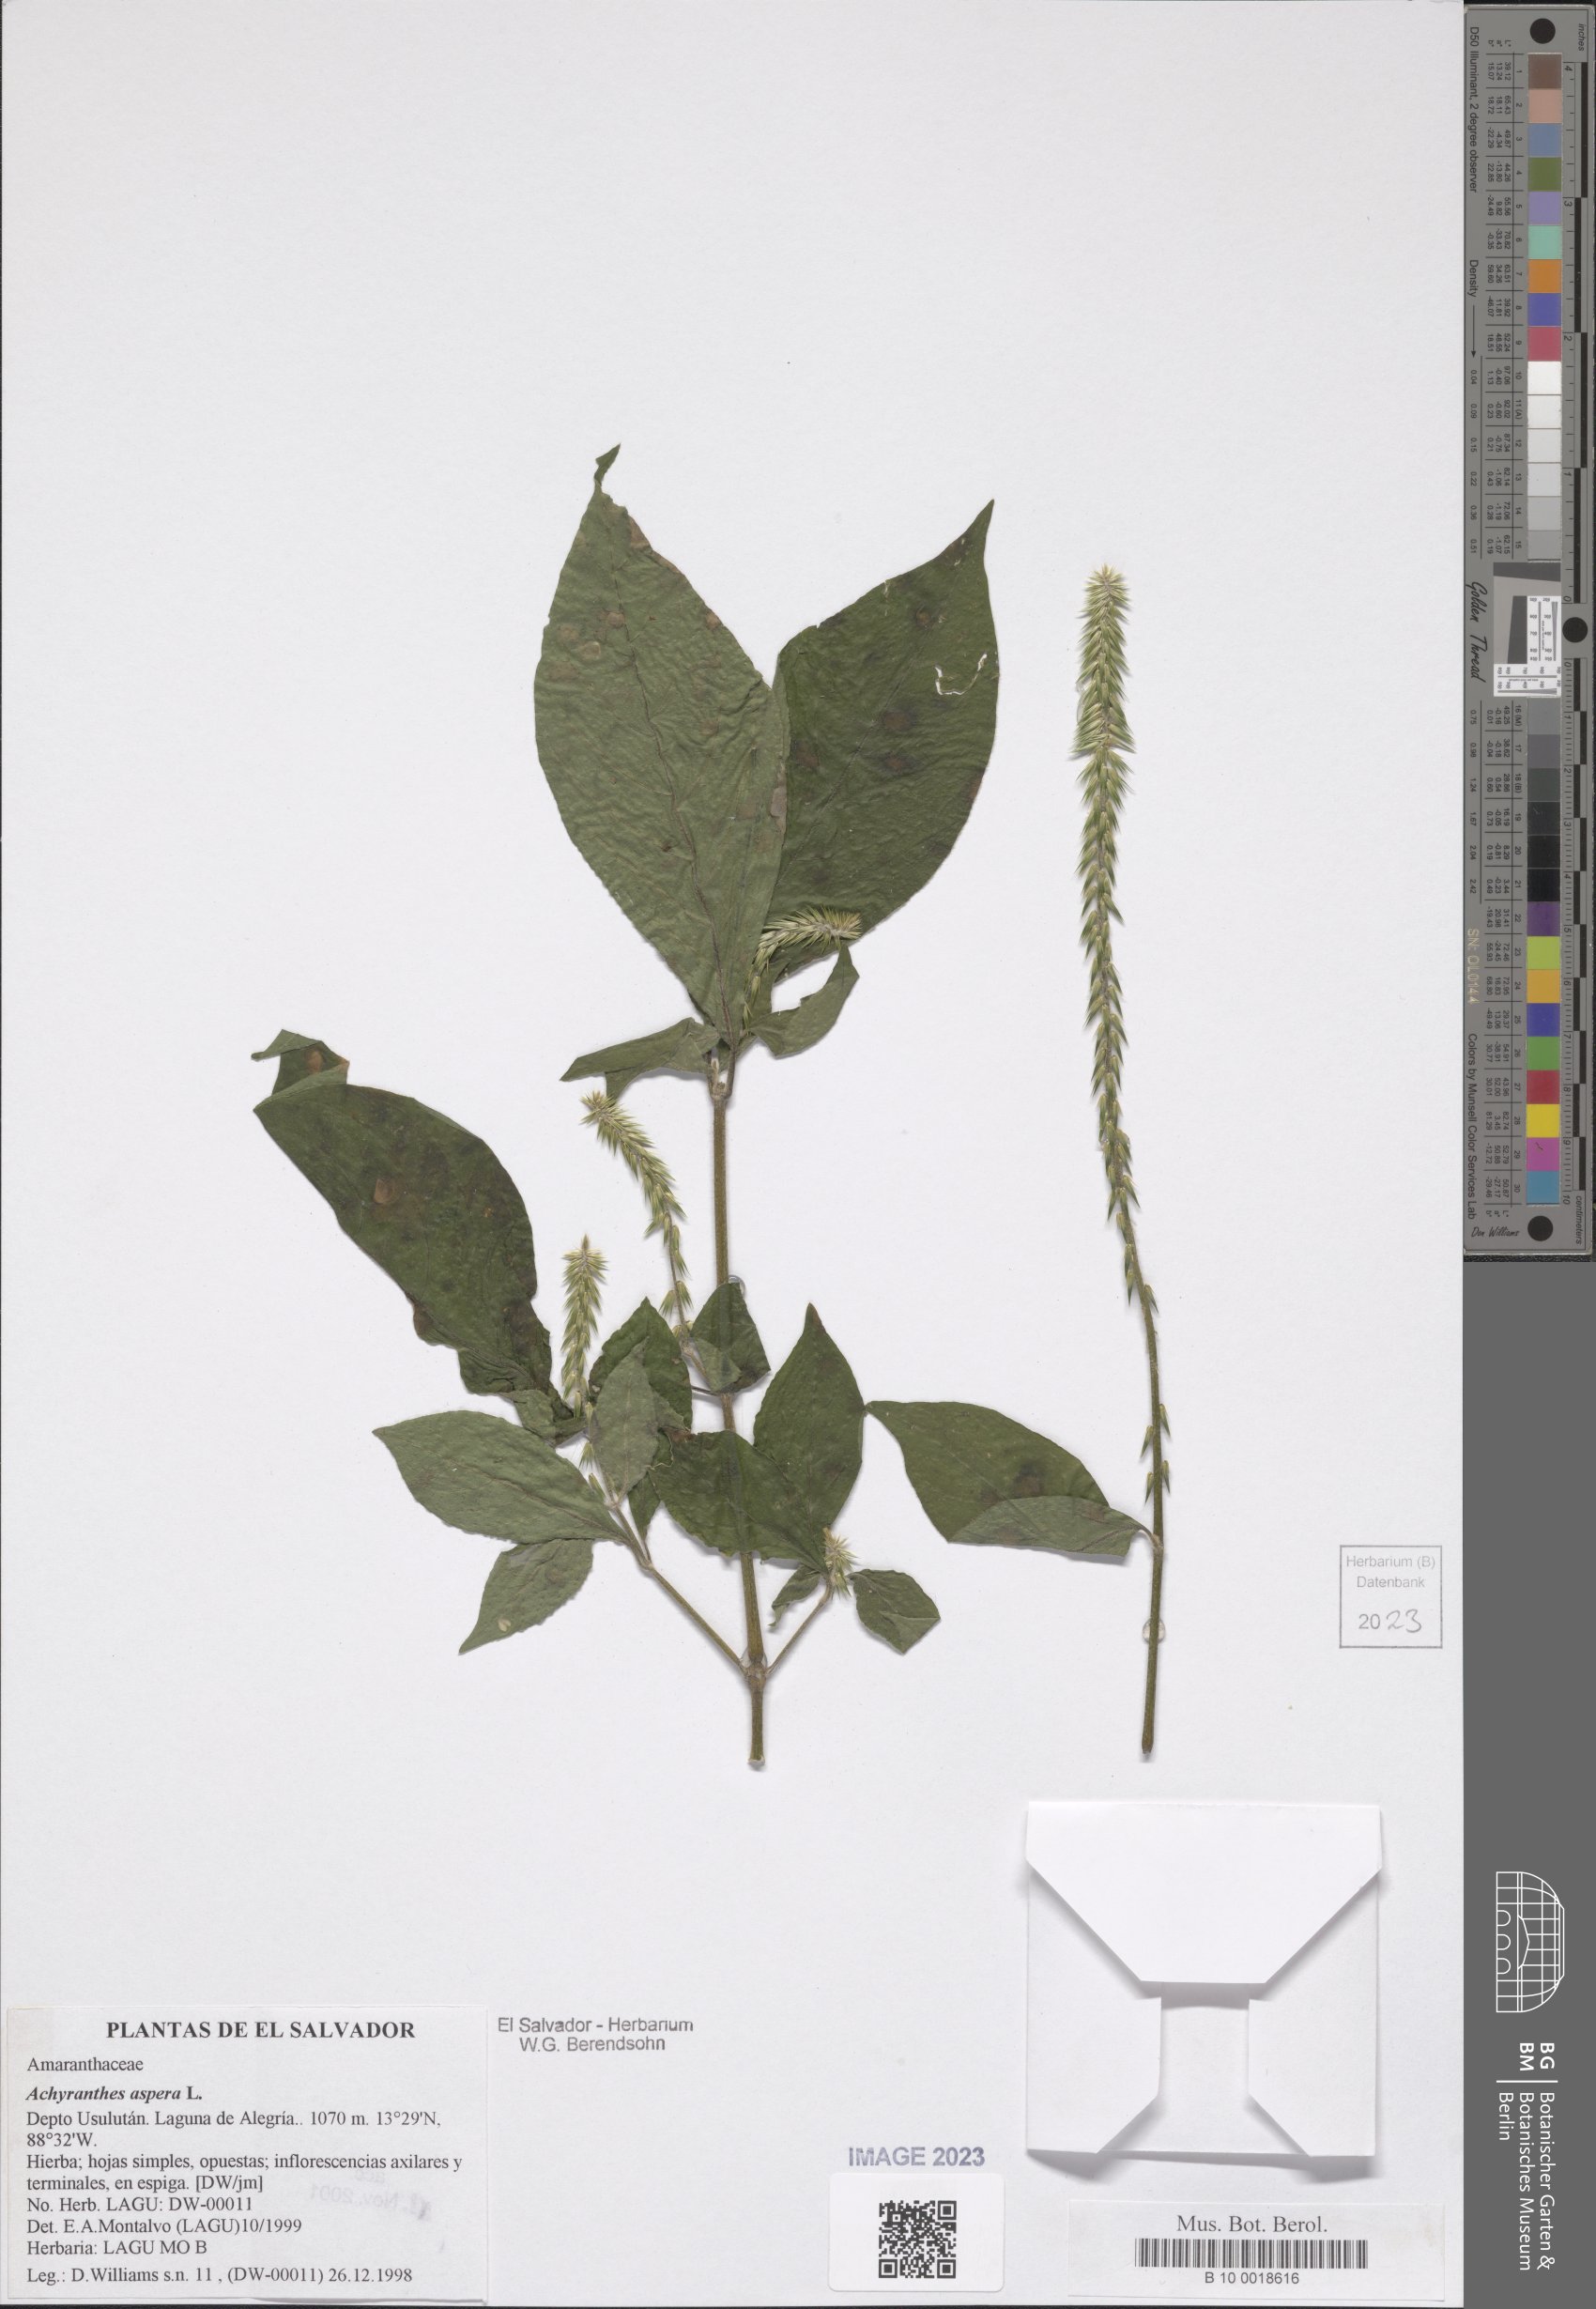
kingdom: Plantae
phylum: Tracheophyta
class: Magnoliopsida
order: Caryophyllales
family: Amaranthaceae
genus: Achyranthes
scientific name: Achyranthes aspera
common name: Devil's horsewhip
